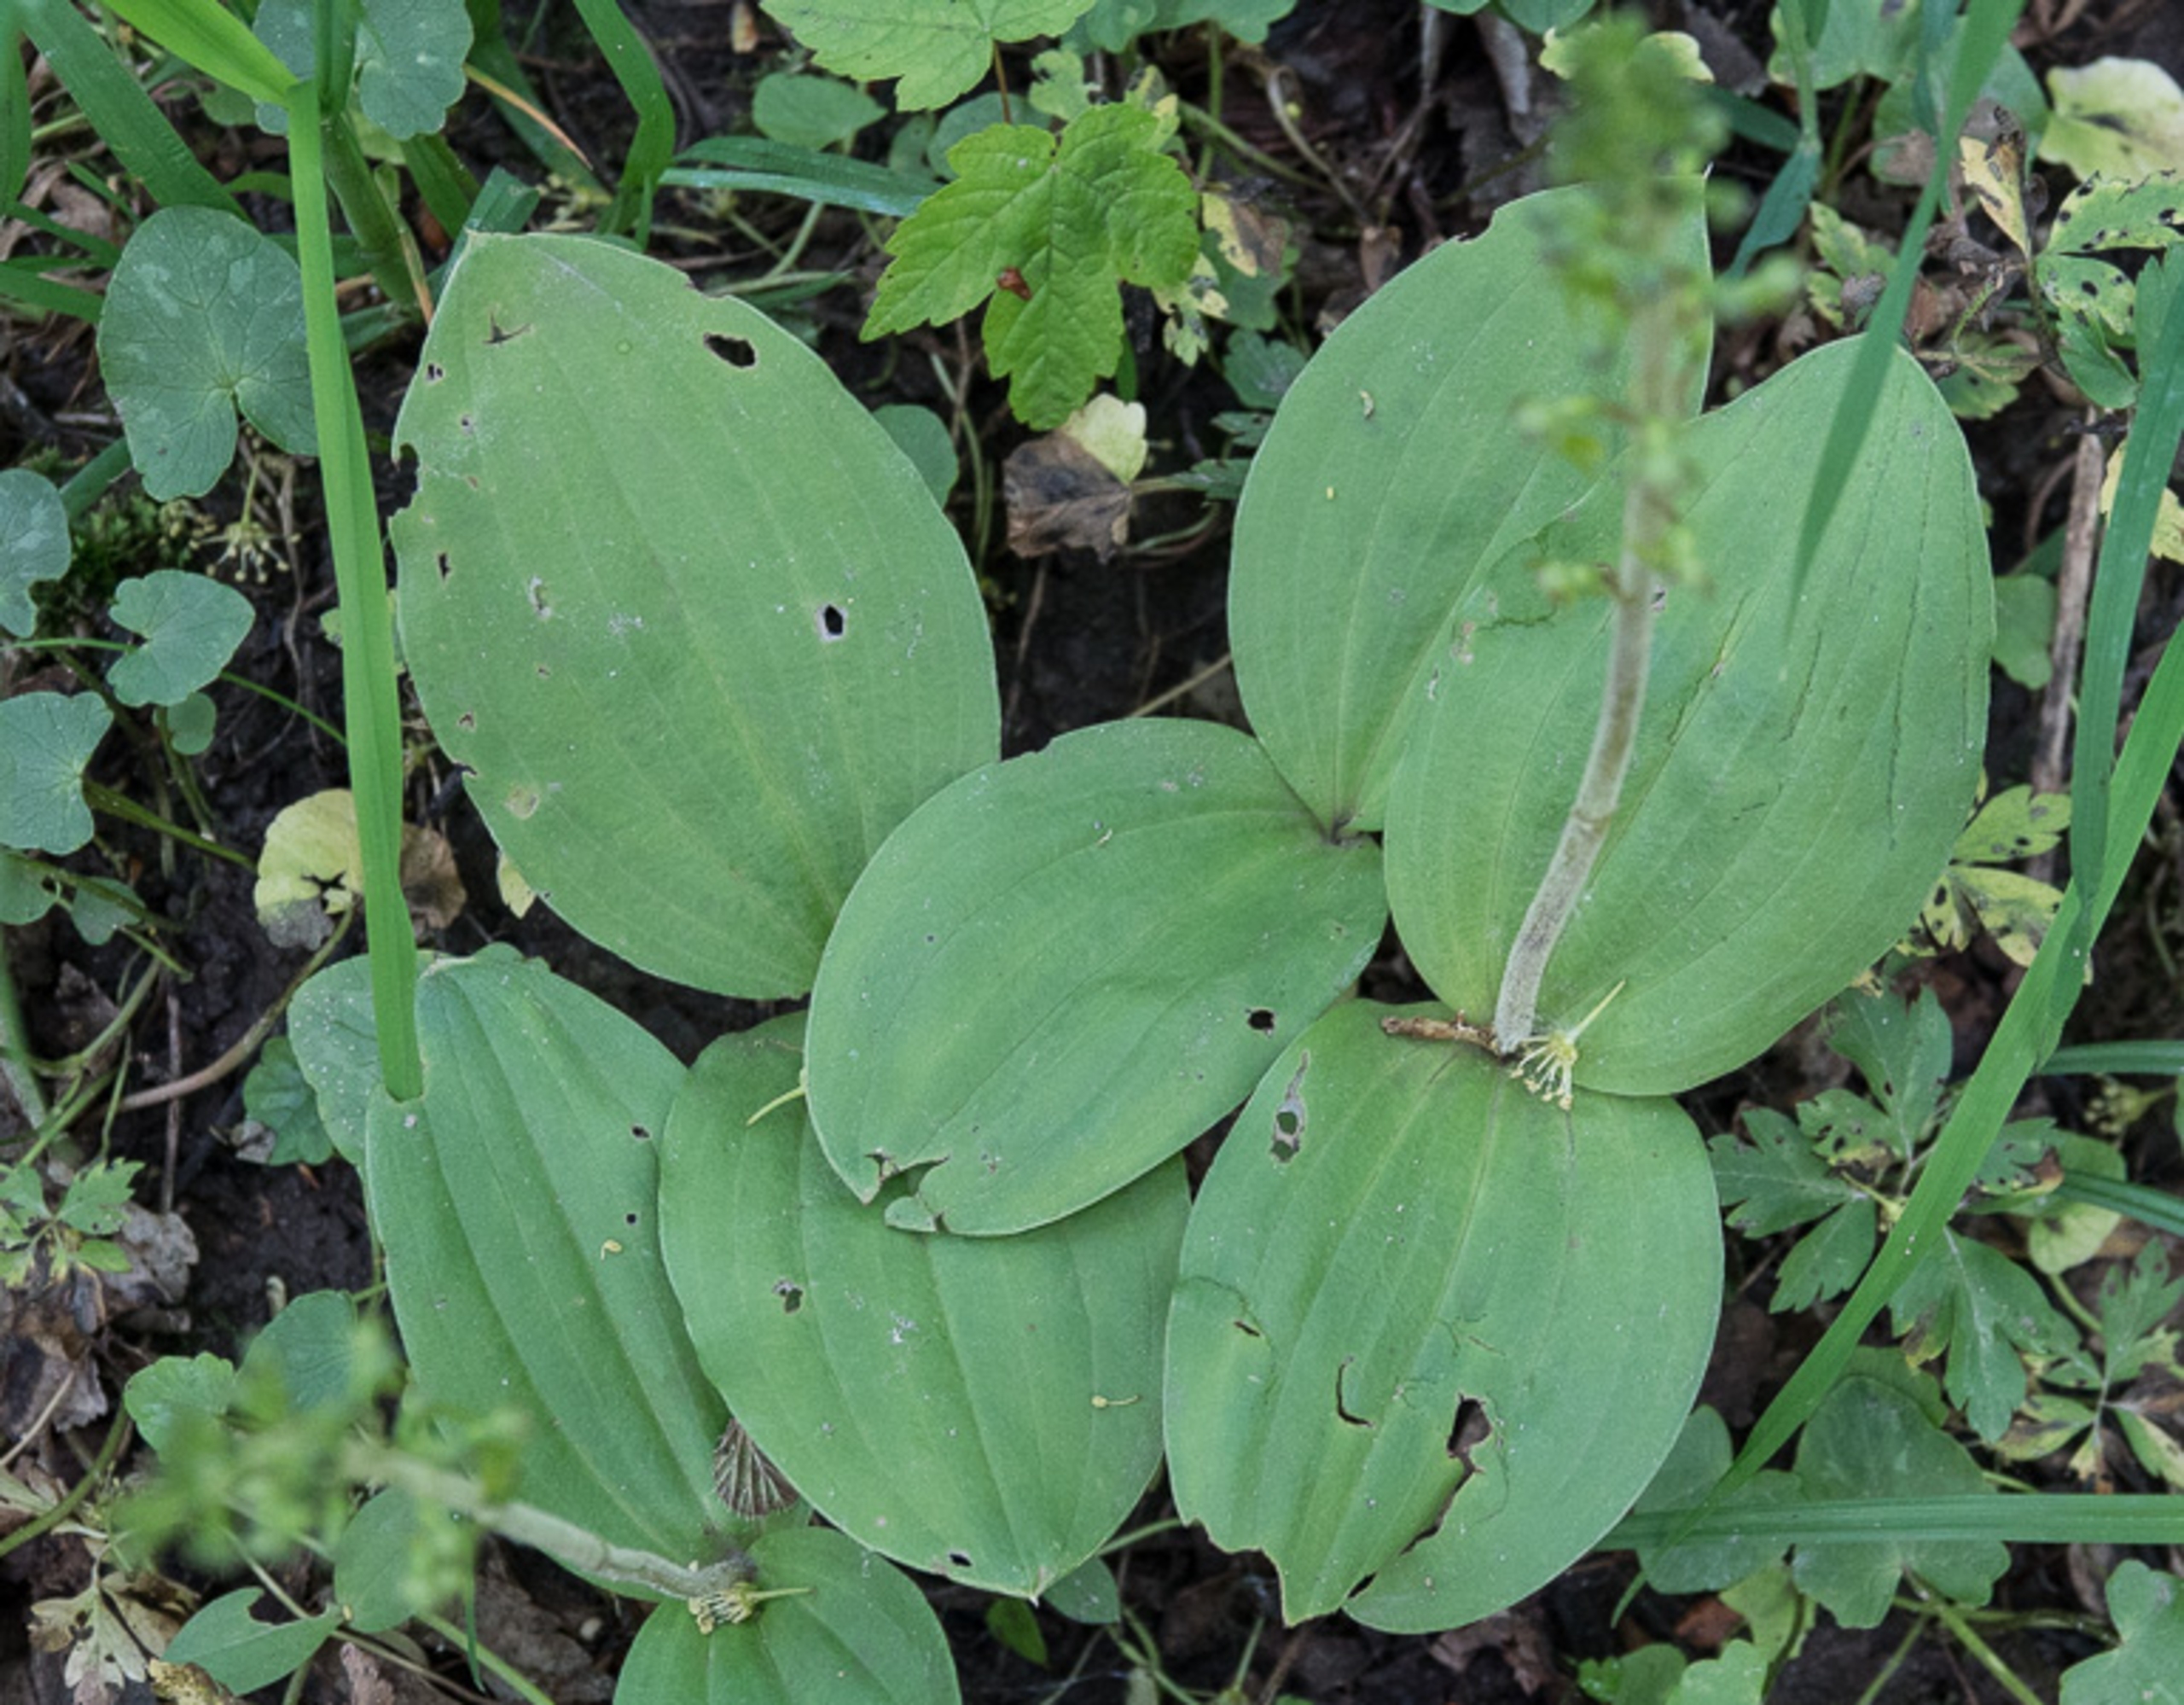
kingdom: Plantae
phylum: Tracheophyta
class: Liliopsida
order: Asparagales
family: Orchidaceae
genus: Neottia
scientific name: Neottia ovata
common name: Ægbladet fliglæbe
